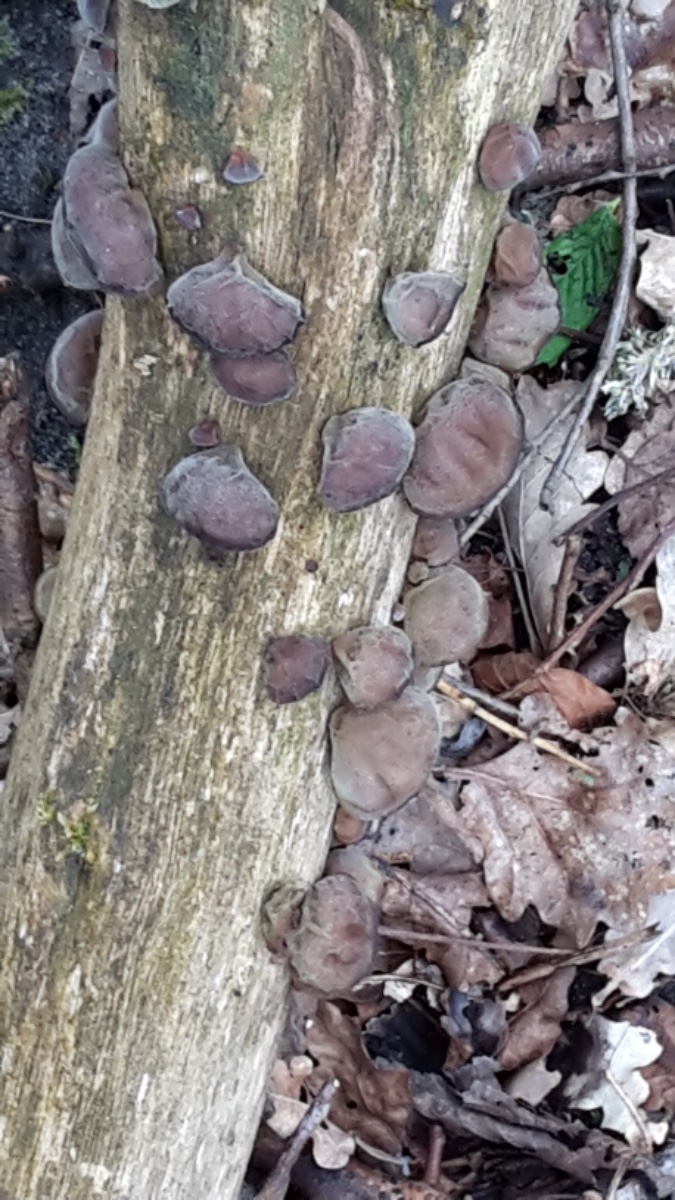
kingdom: Fungi
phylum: Basidiomycota
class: Agaricomycetes
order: Auriculariales
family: Auriculariaceae
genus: Auricularia
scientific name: Auricularia auricula-judae
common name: almindelig judasøre
